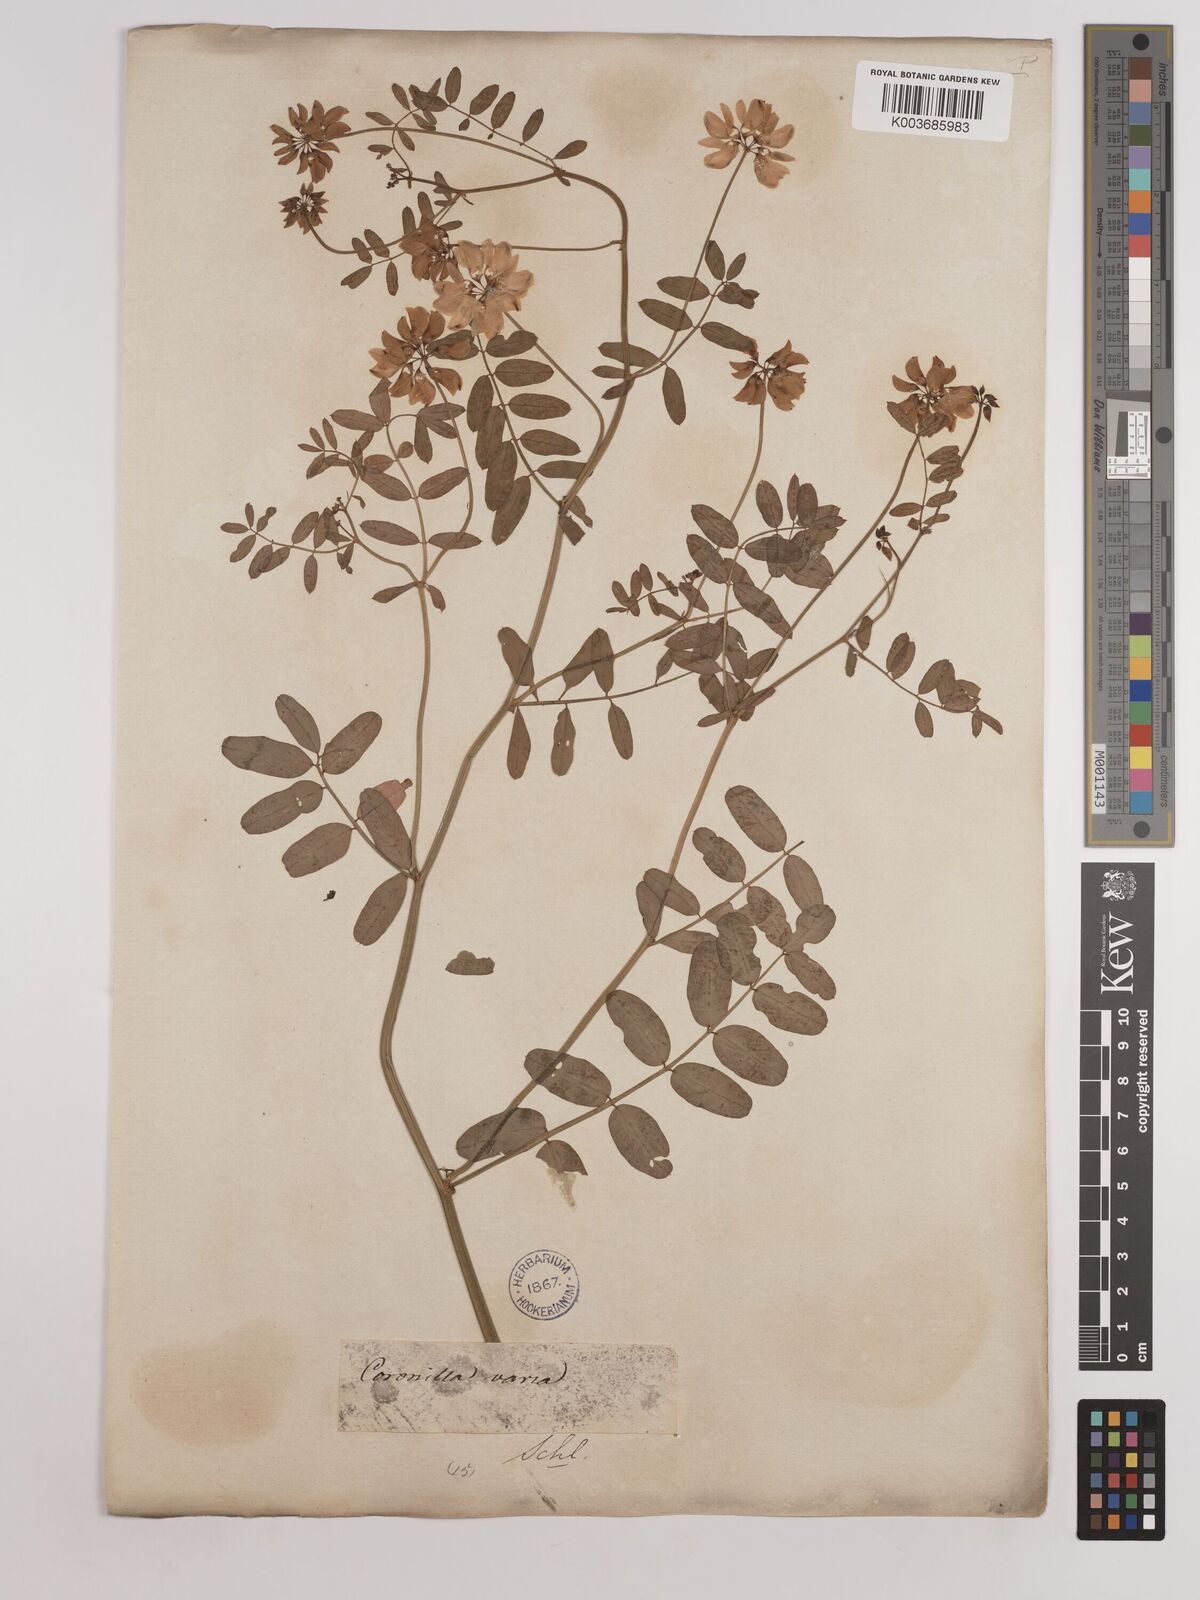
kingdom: Plantae
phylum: Tracheophyta
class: Magnoliopsida
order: Fabales
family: Fabaceae
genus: Coronilla
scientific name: Coronilla varia
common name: Crownvetch
